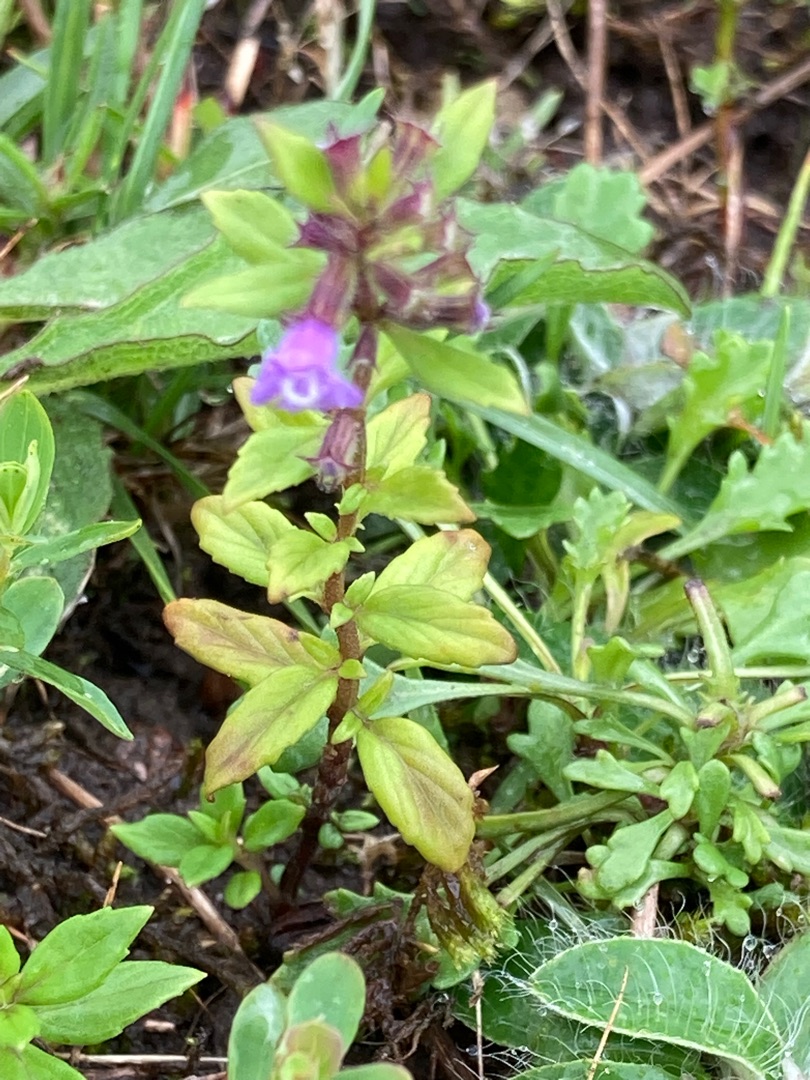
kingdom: Plantae
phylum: Tracheophyta
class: Magnoliopsida
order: Lamiales
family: Lamiaceae
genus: Clinopodium
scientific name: Clinopodium acinos
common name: Voldtimian
